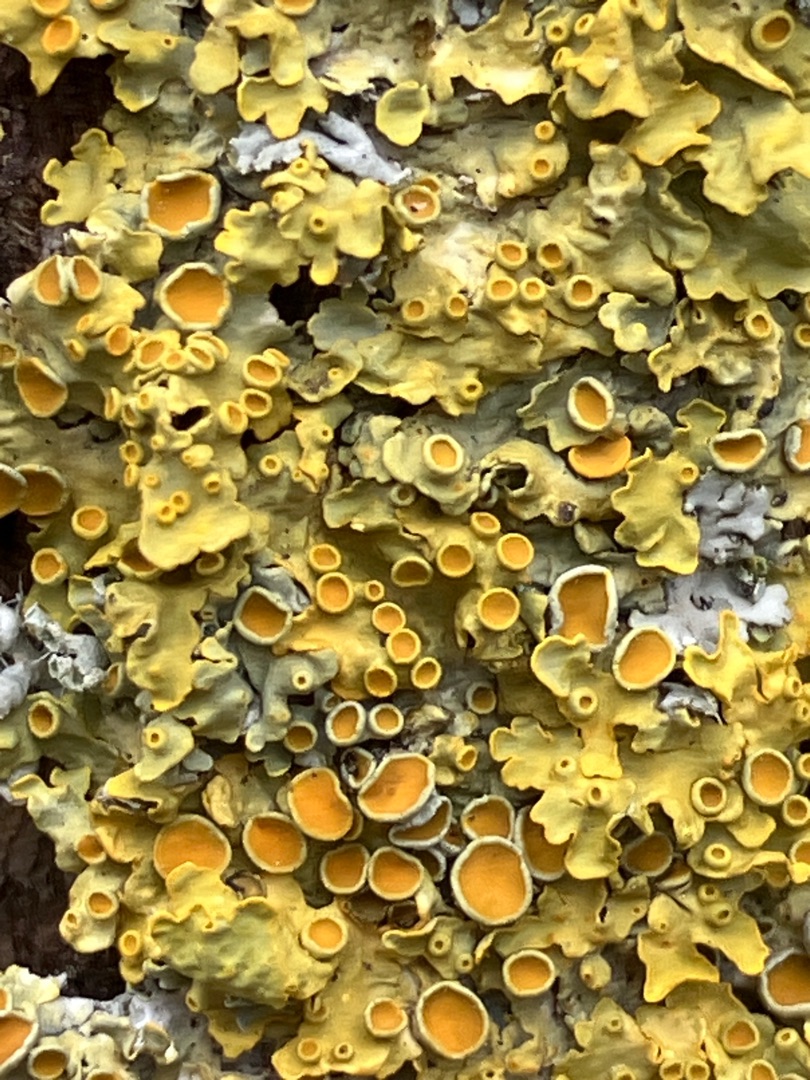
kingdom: Fungi
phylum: Ascomycota
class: Lecanoromycetes
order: Teloschistales
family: Teloschistaceae
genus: Xanthoria
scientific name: Xanthoria parietina
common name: Almindelig væggelav
